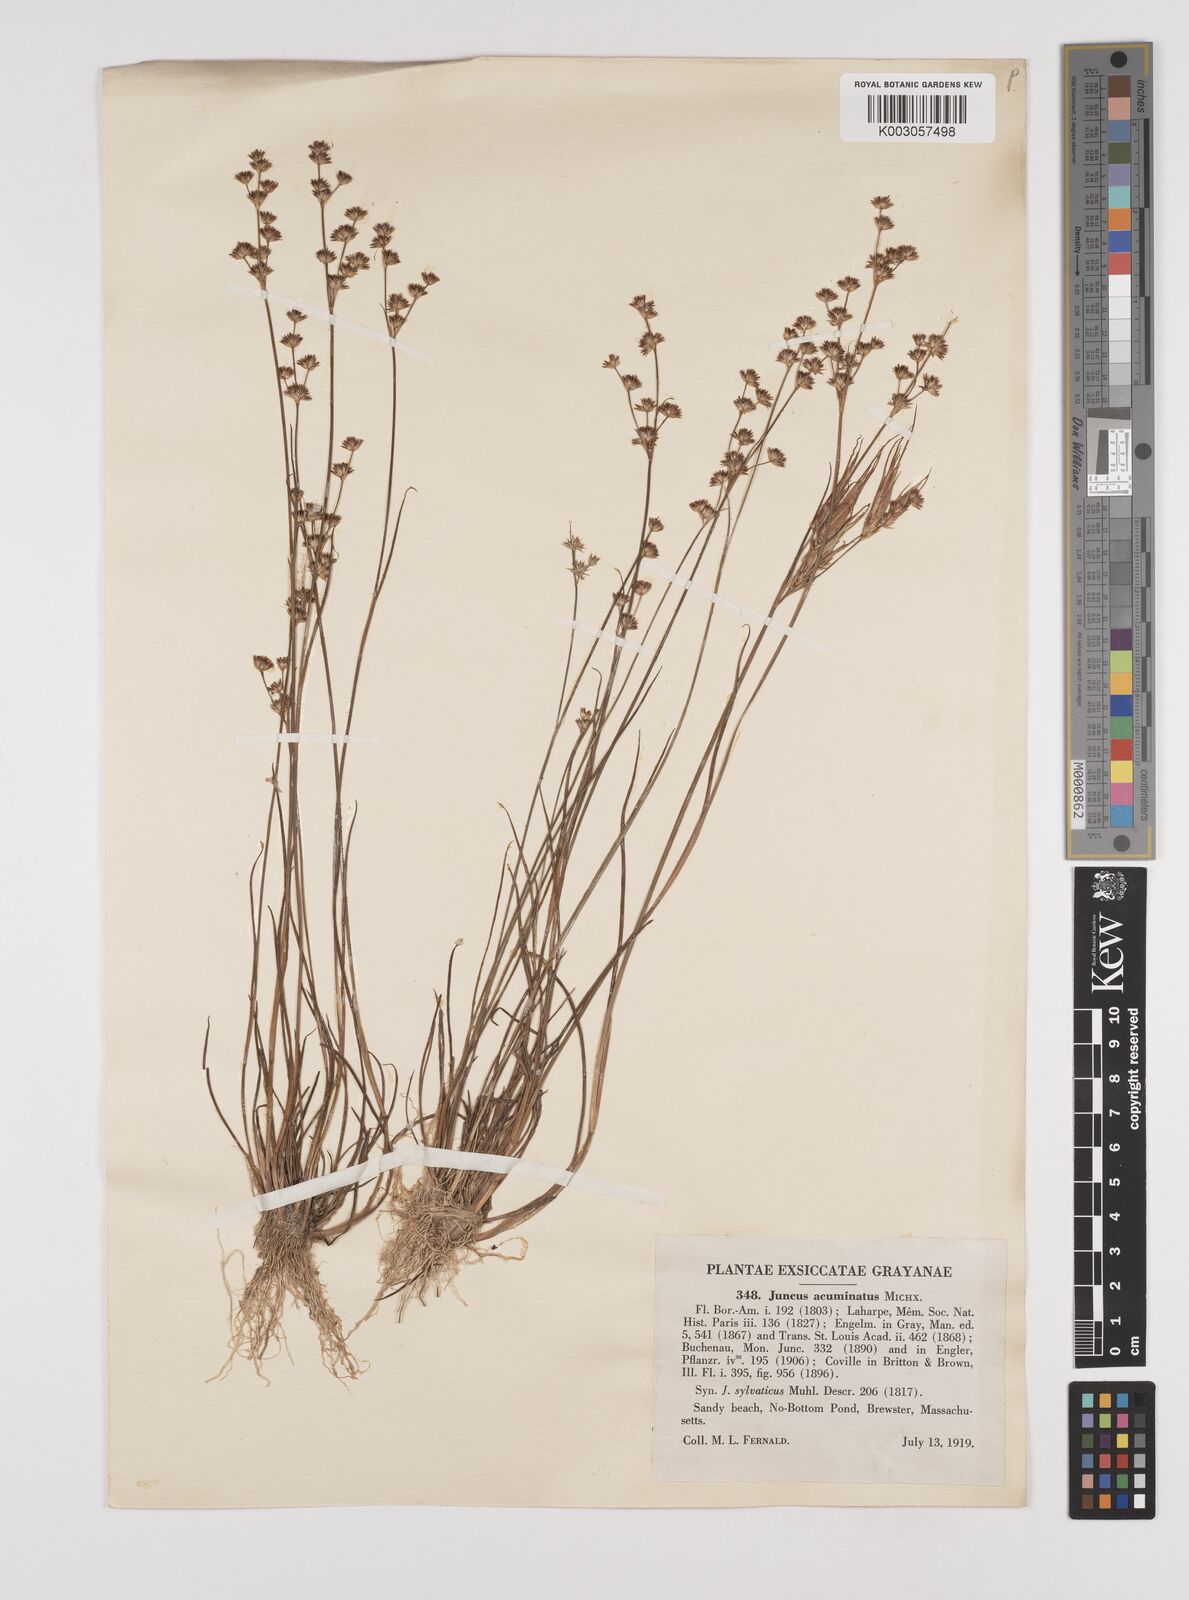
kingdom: Plantae
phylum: Tracheophyta
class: Liliopsida
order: Poales
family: Juncaceae
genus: Juncus
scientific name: Juncus acuminatus
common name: Knotty-leaved rush
